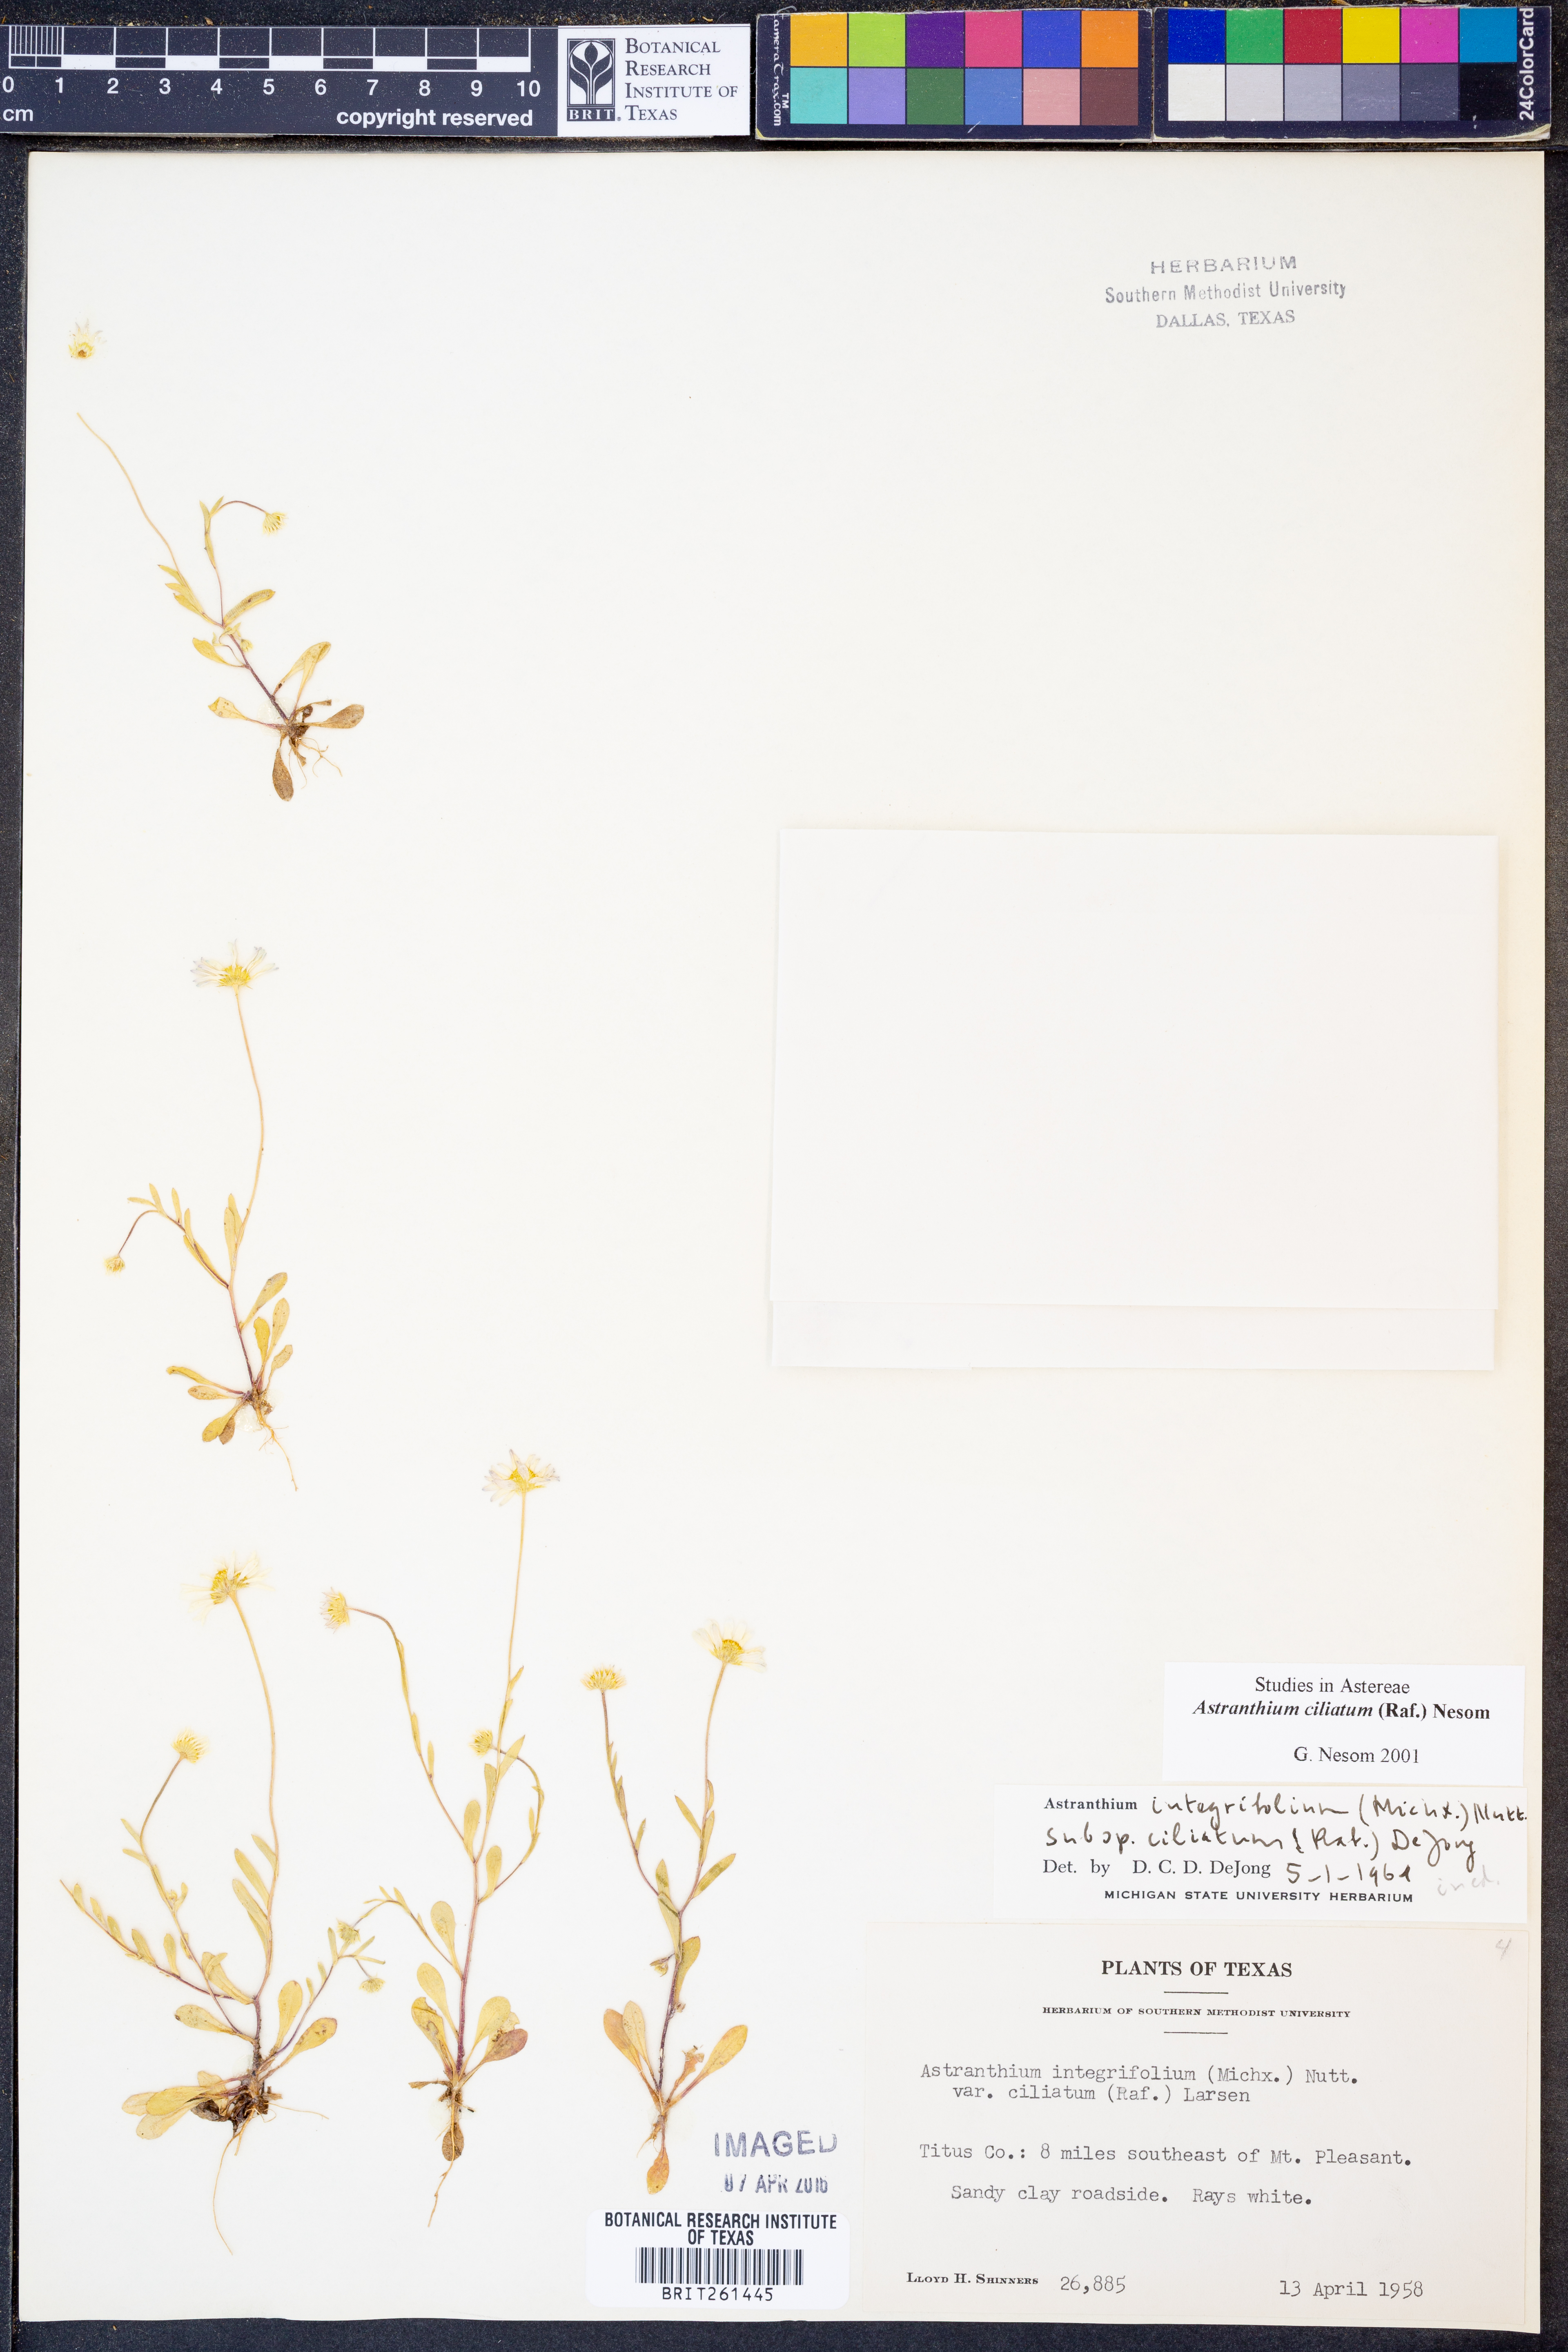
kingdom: Plantae
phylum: Tracheophyta
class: Magnoliopsida
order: Asterales
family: Asteraceae
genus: Astranthium
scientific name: Astranthium ciliatum
